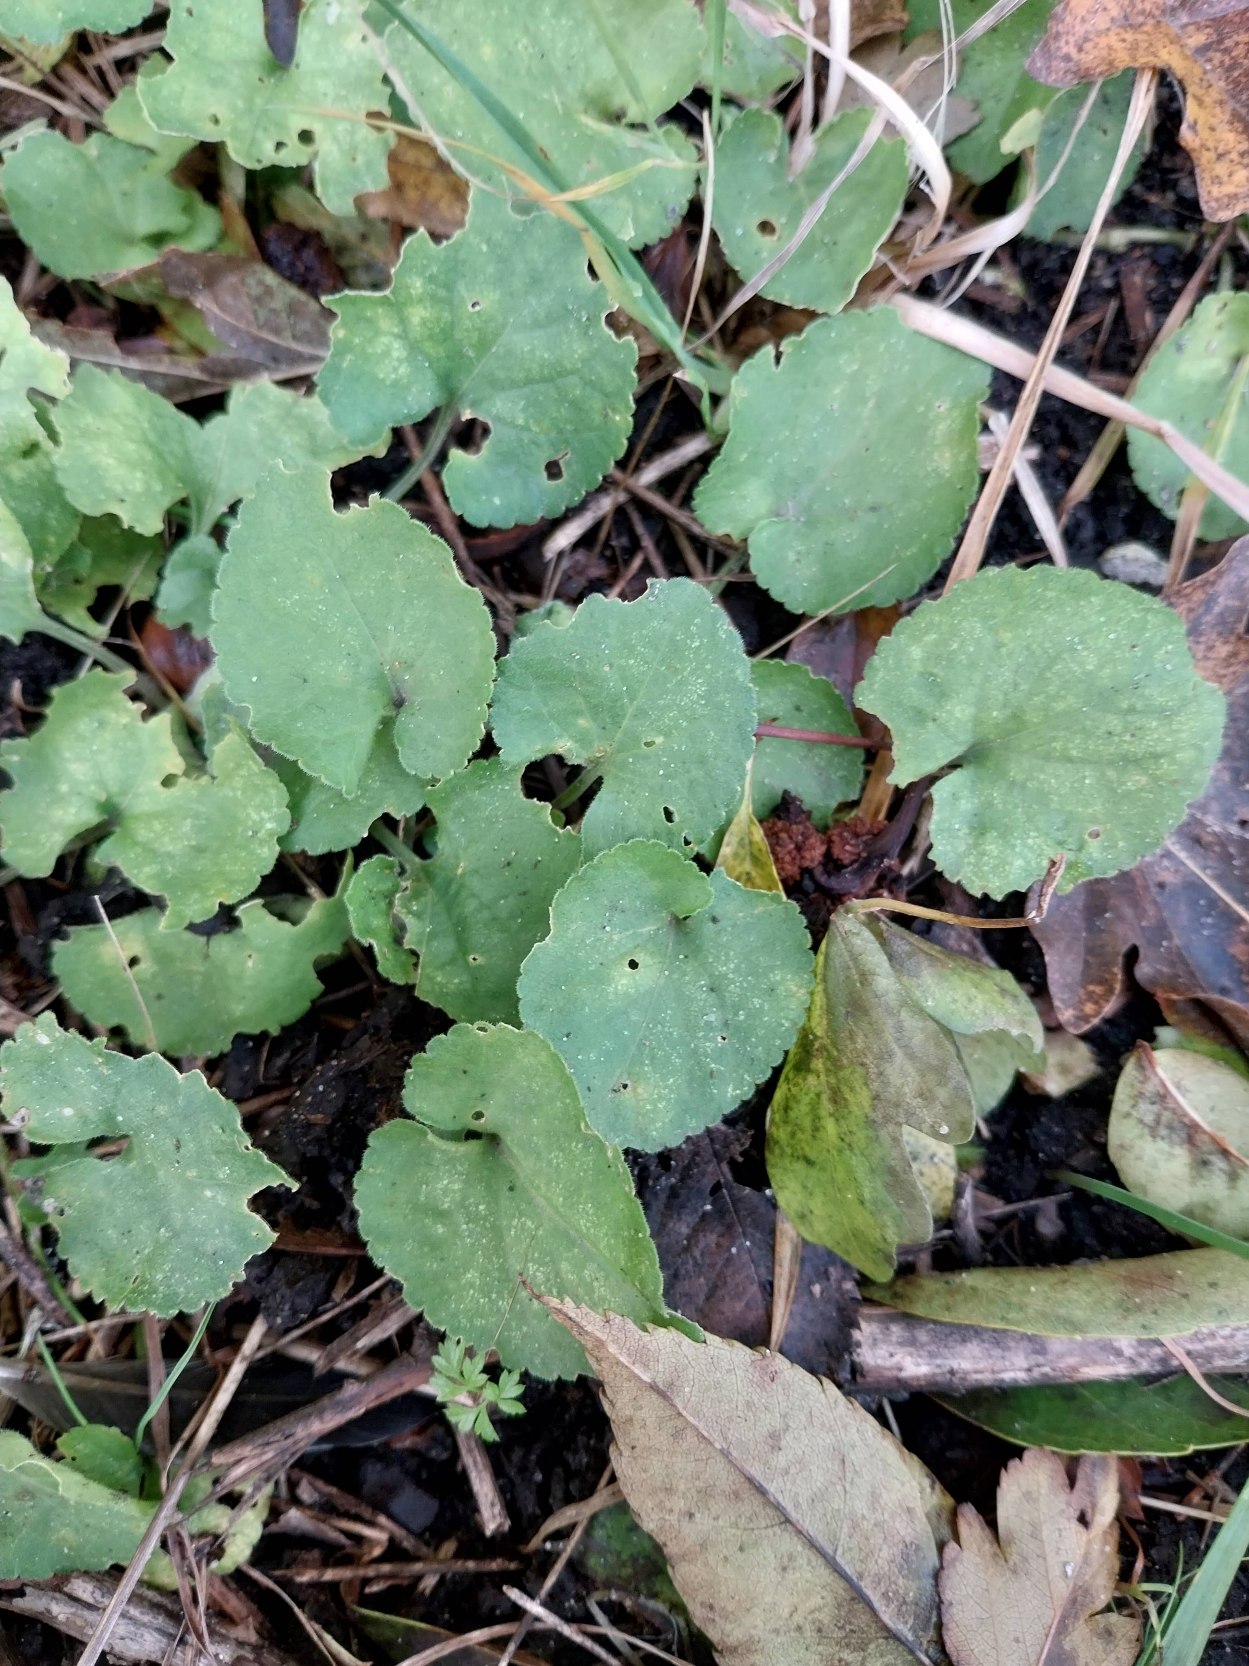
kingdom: Plantae
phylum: Tracheophyta
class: Magnoliopsida
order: Malpighiales
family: Violaceae
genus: Viola
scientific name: Viola odorata
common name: Marts-viol
